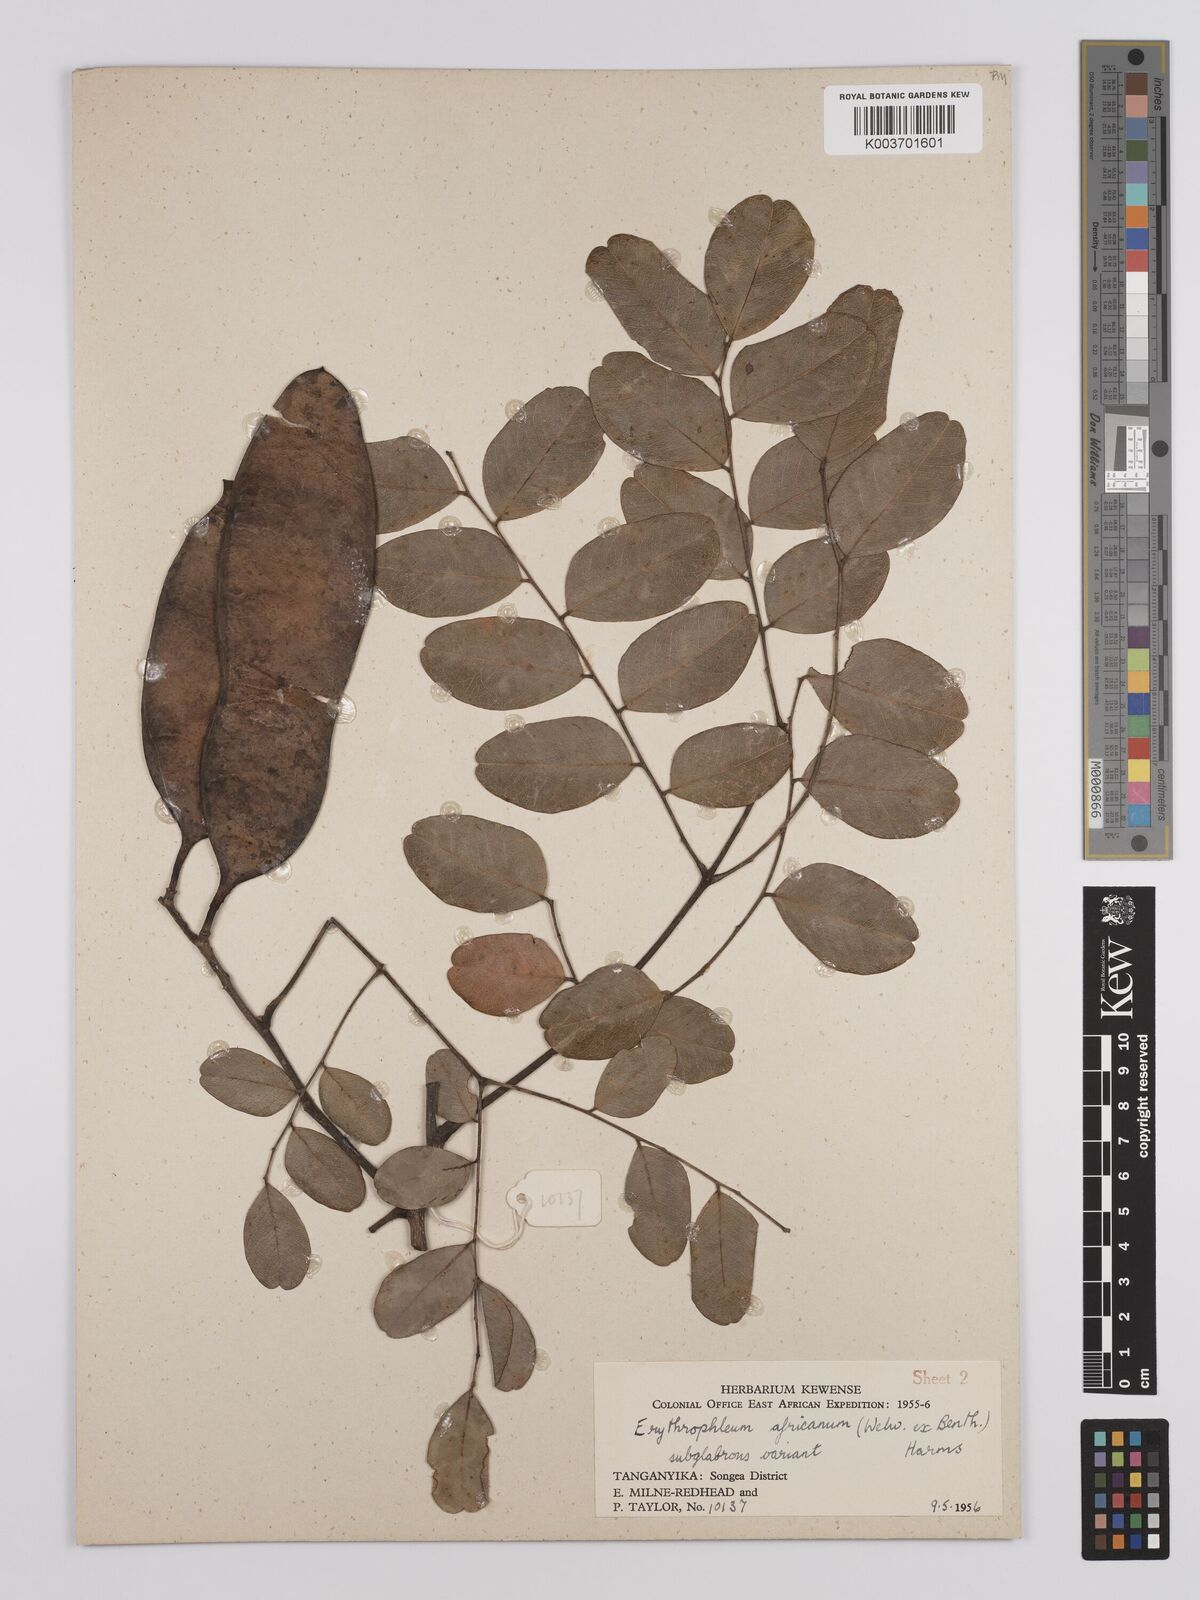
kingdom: Plantae
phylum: Tracheophyta
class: Magnoliopsida
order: Fabales
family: Fabaceae
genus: Erythrophleum
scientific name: Erythrophleum africanum
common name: African blackwood
